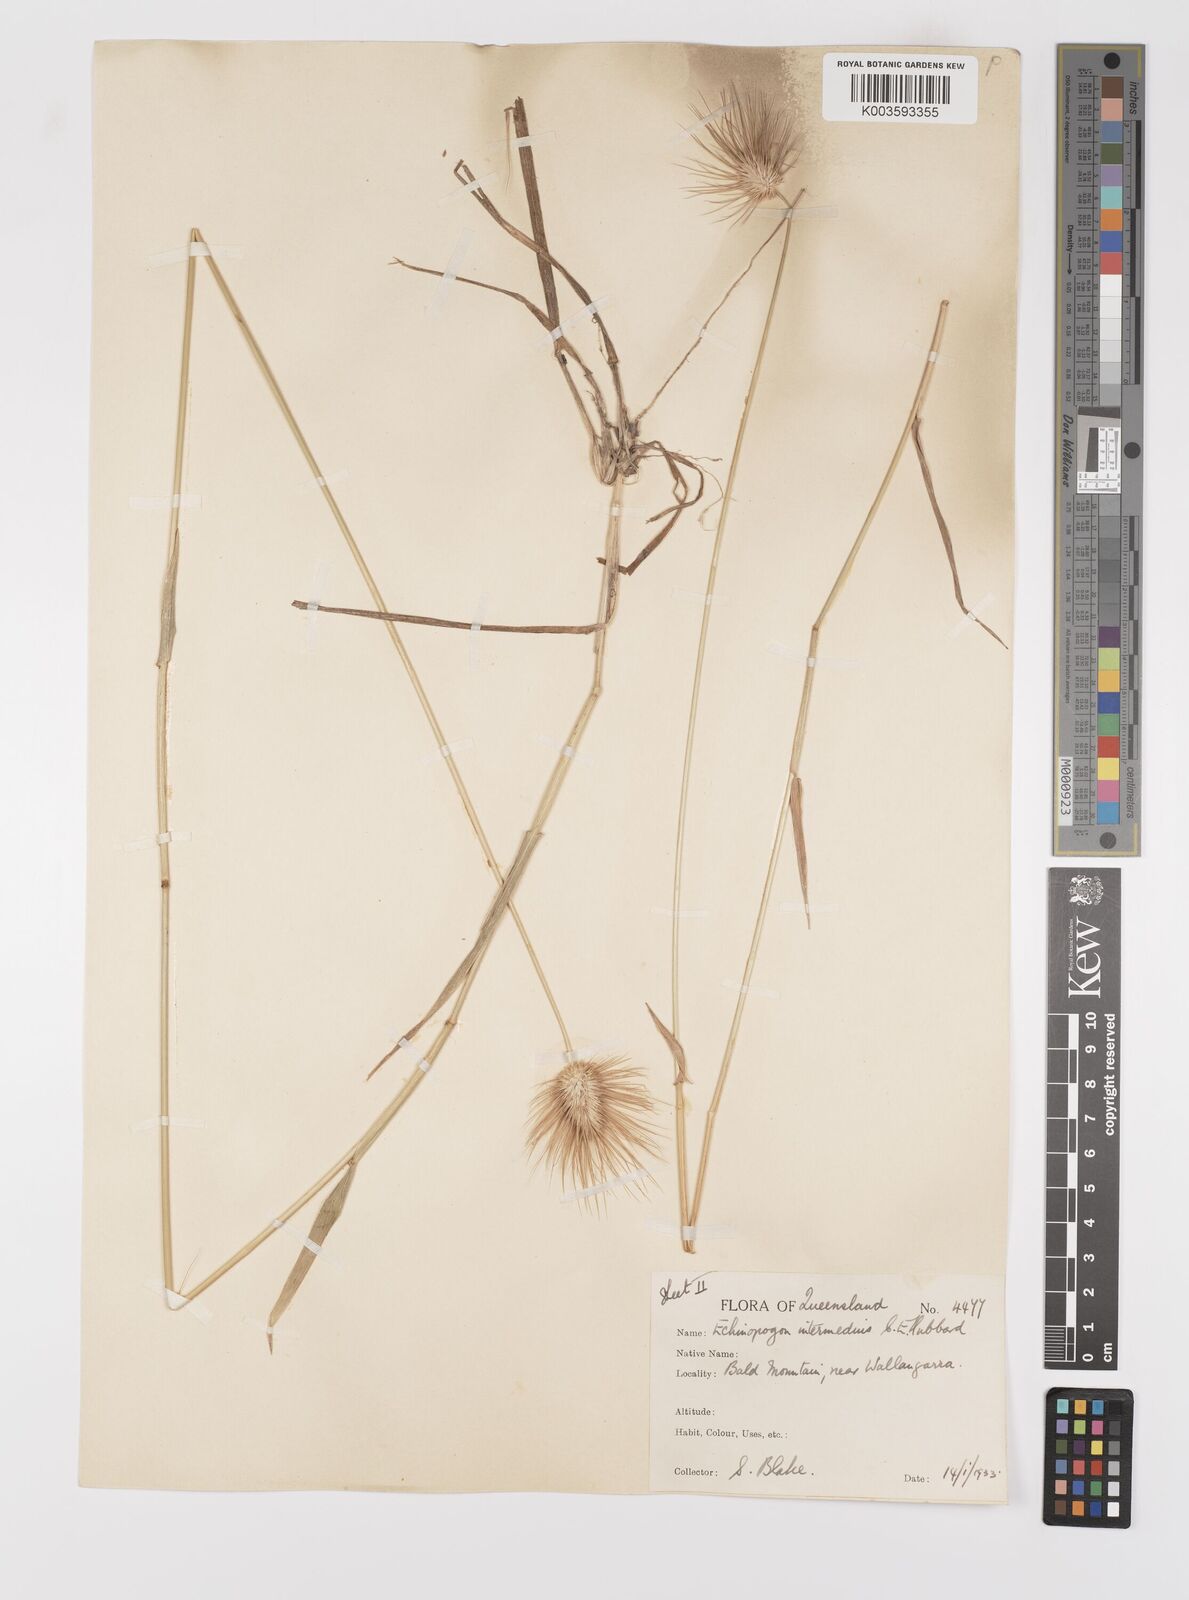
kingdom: Plantae
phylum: Tracheophyta
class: Liliopsida
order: Poales
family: Poaceae
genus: Echinopogon
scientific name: Echinopogon intermedius
